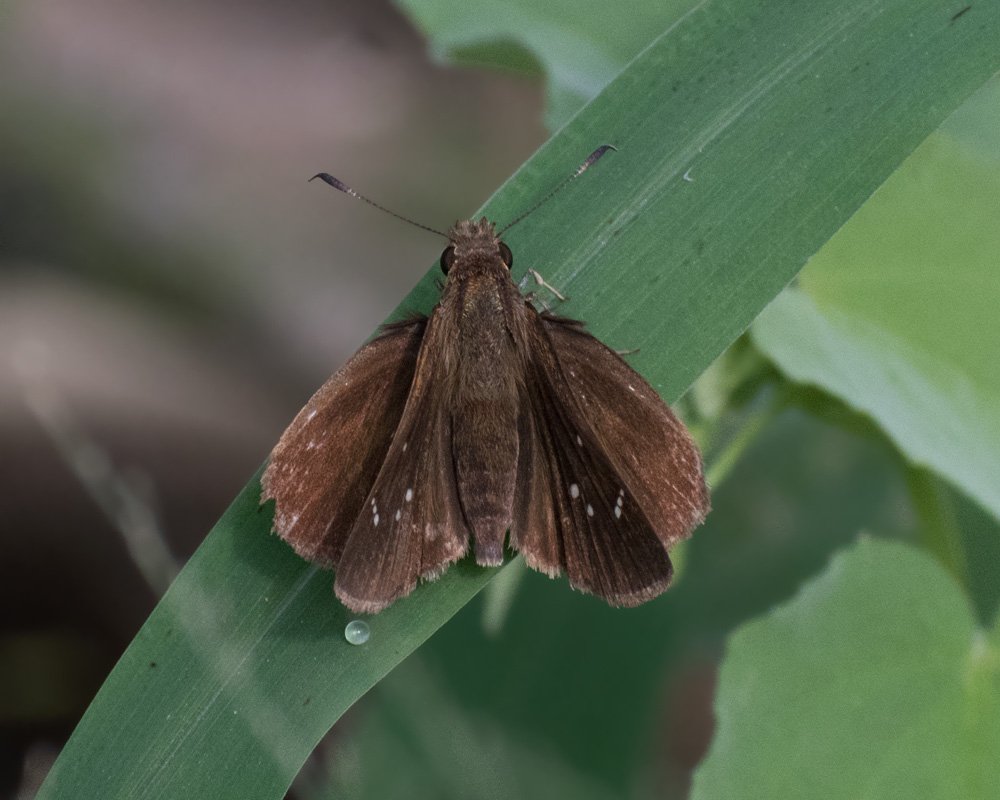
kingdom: Animalia
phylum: Arthropoda
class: Insecta
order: Lepidoptera
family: Hesperiidae
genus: Cymaenes
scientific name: Cymaenes odilia
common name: Fawn-spotted Skipper
